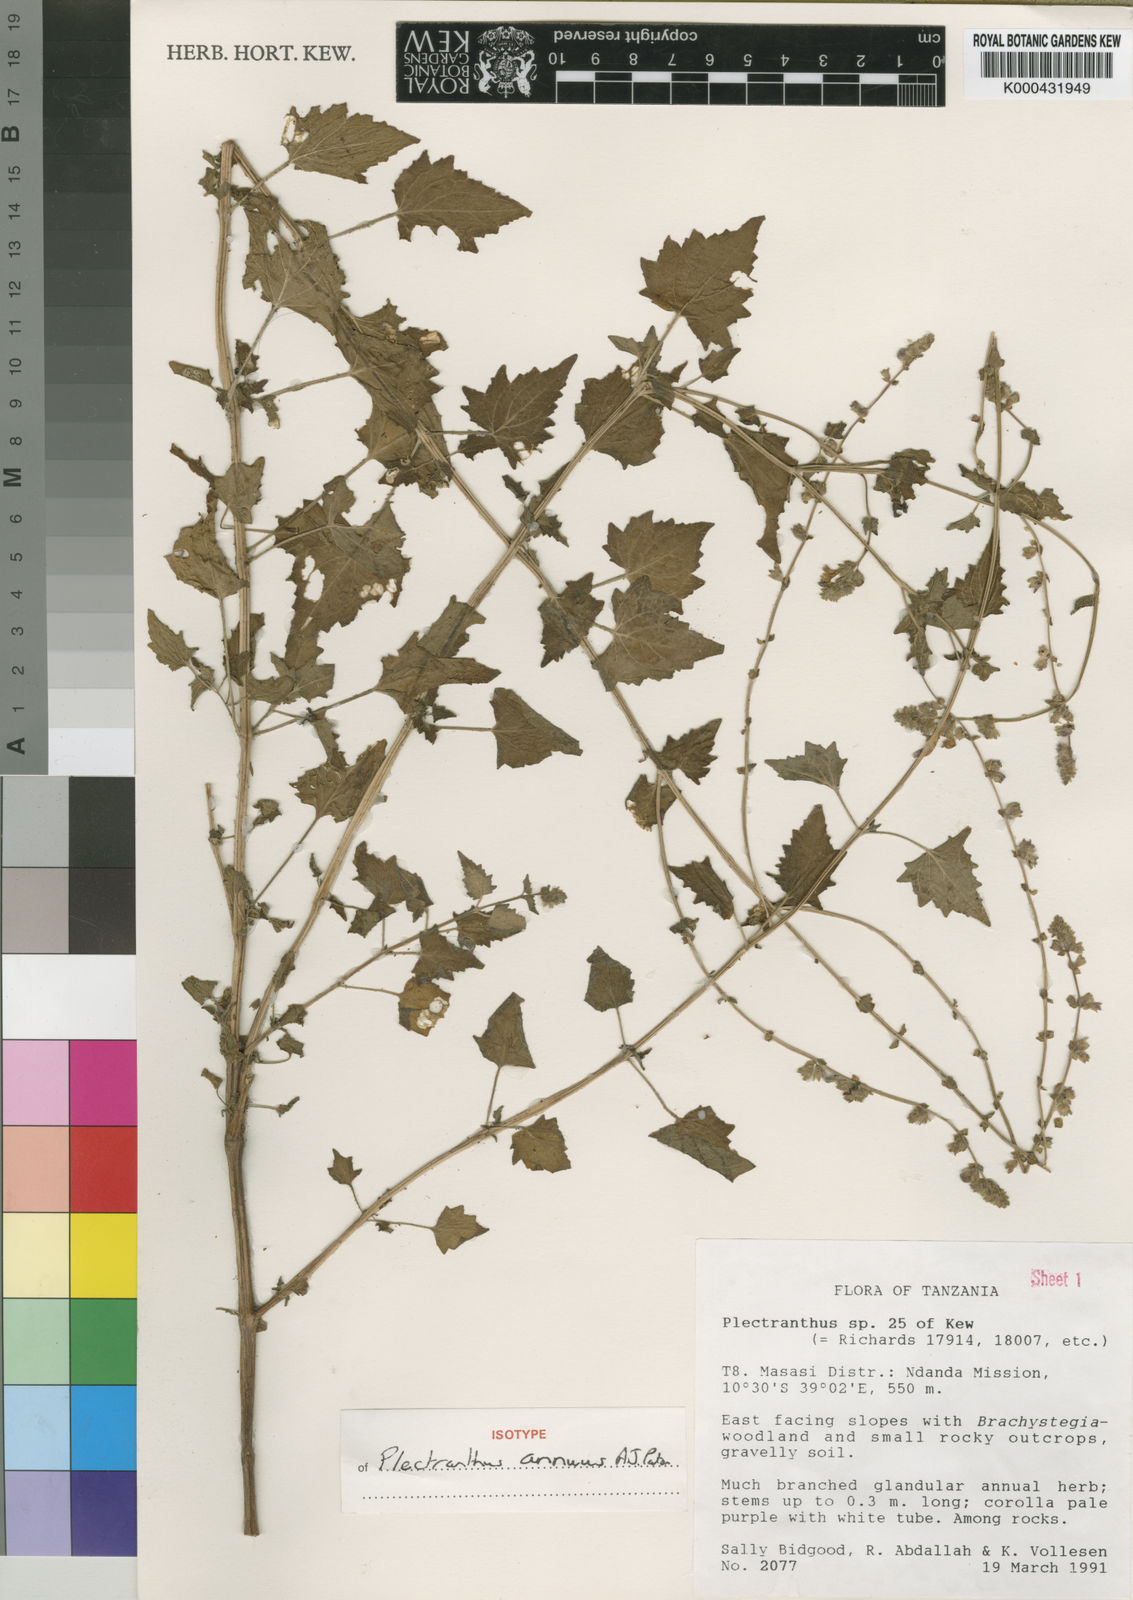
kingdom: Plantae
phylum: Tracheophyta
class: Magnoliopsida
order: Lamiales
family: Lamiaceae
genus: Equilabium
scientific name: Equilabium annuum
